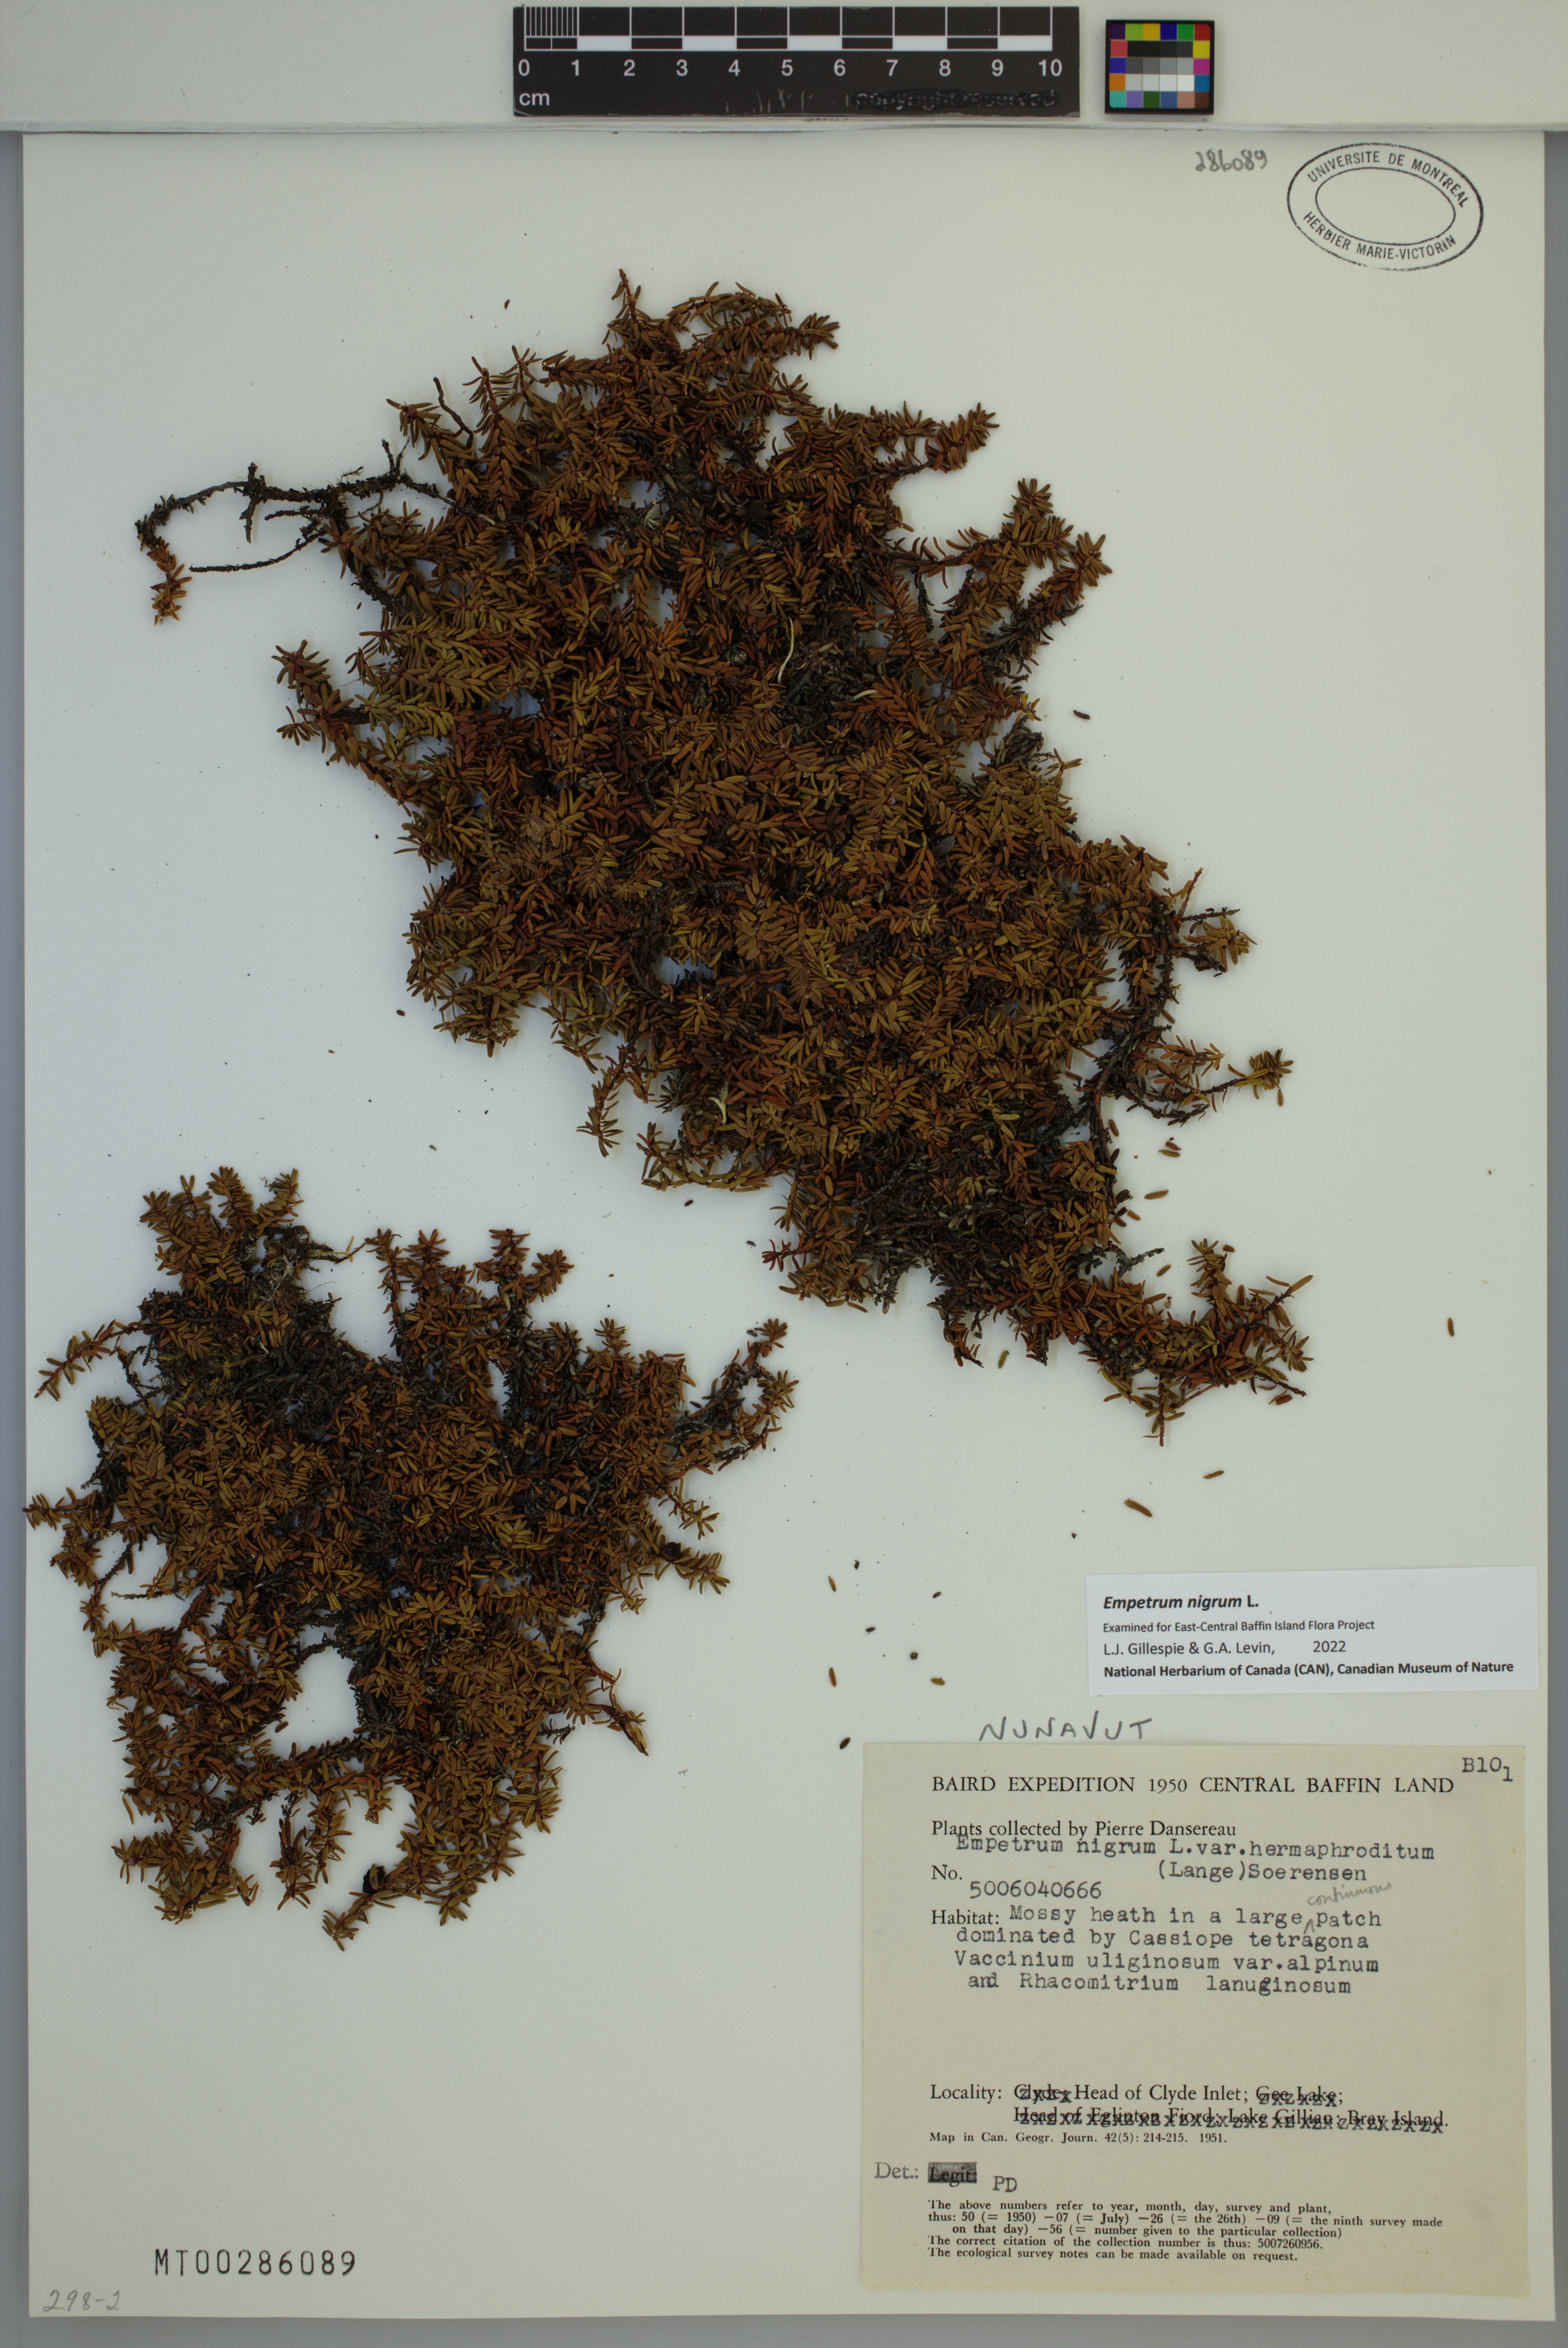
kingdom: Plantae
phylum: Tracheophyta
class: Magnoliopsida
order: Ericales
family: Ericaceae
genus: Empetrum
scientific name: Empetrum nigrum
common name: Black crowberry
